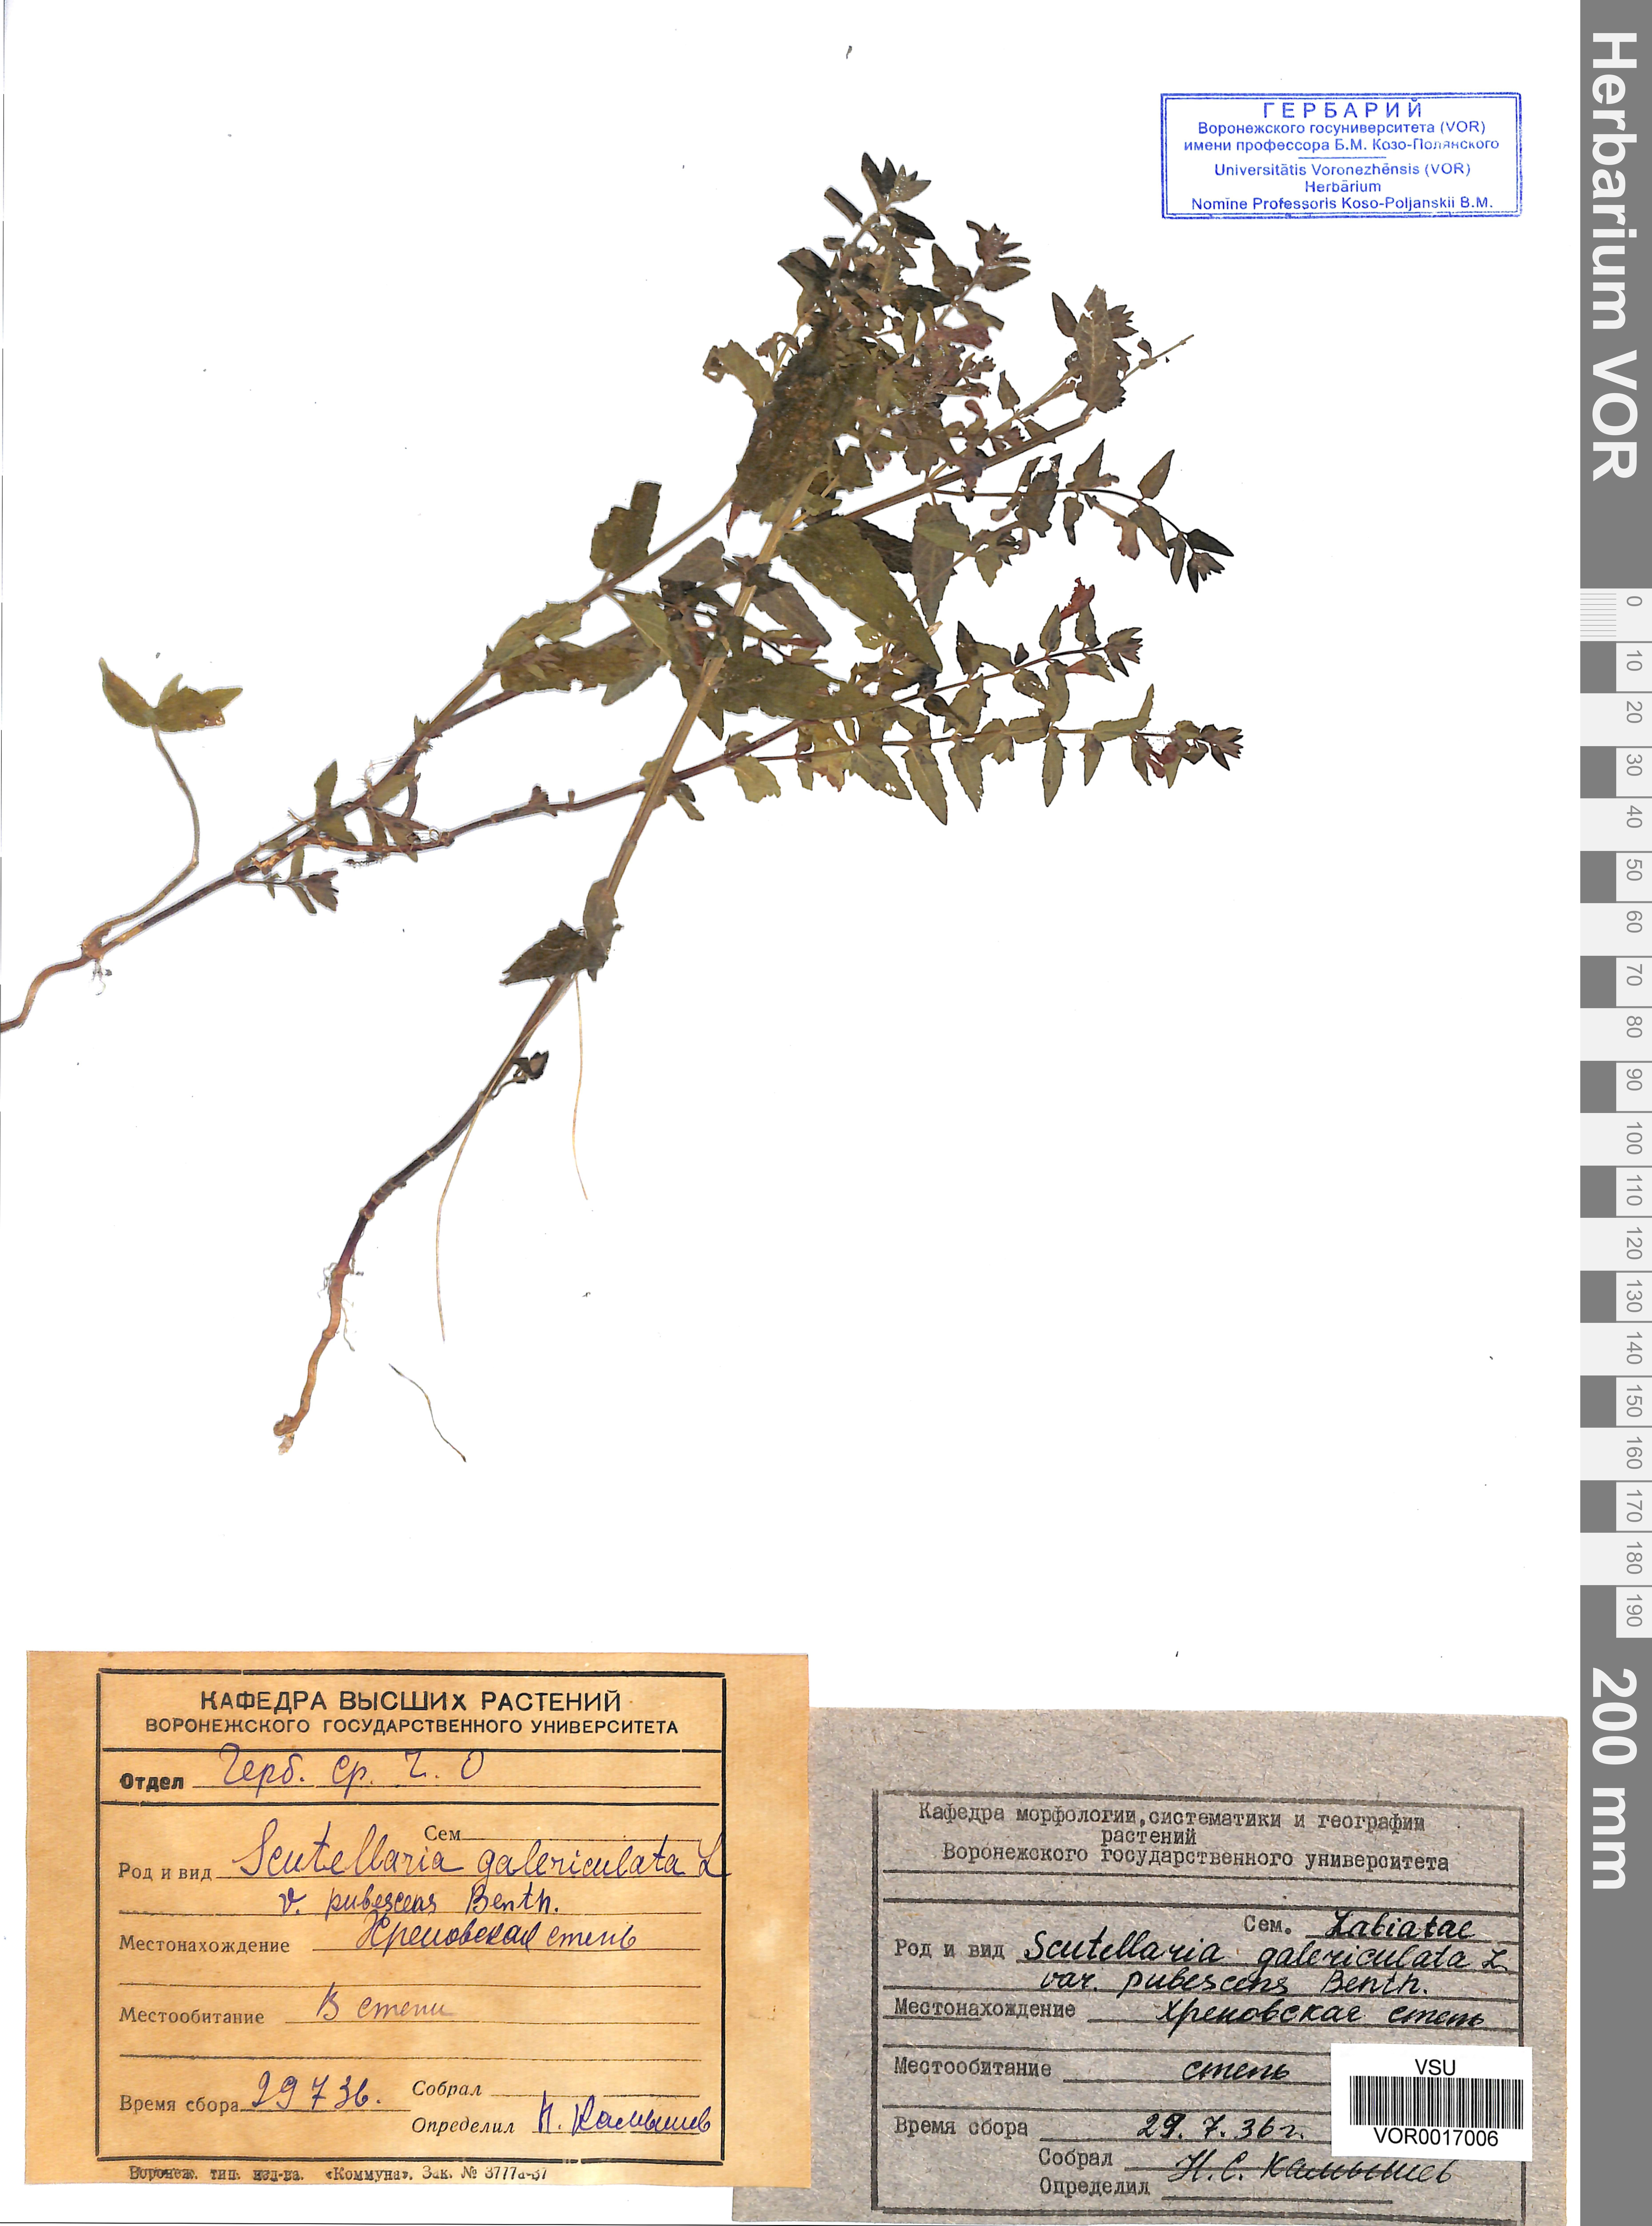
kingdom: Plantae
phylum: Tracheophyta
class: Magnoliopsida
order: Lamiales
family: Lamiaceae
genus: Scutellaria
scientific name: Scutellaria galericulata
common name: Skullcap
